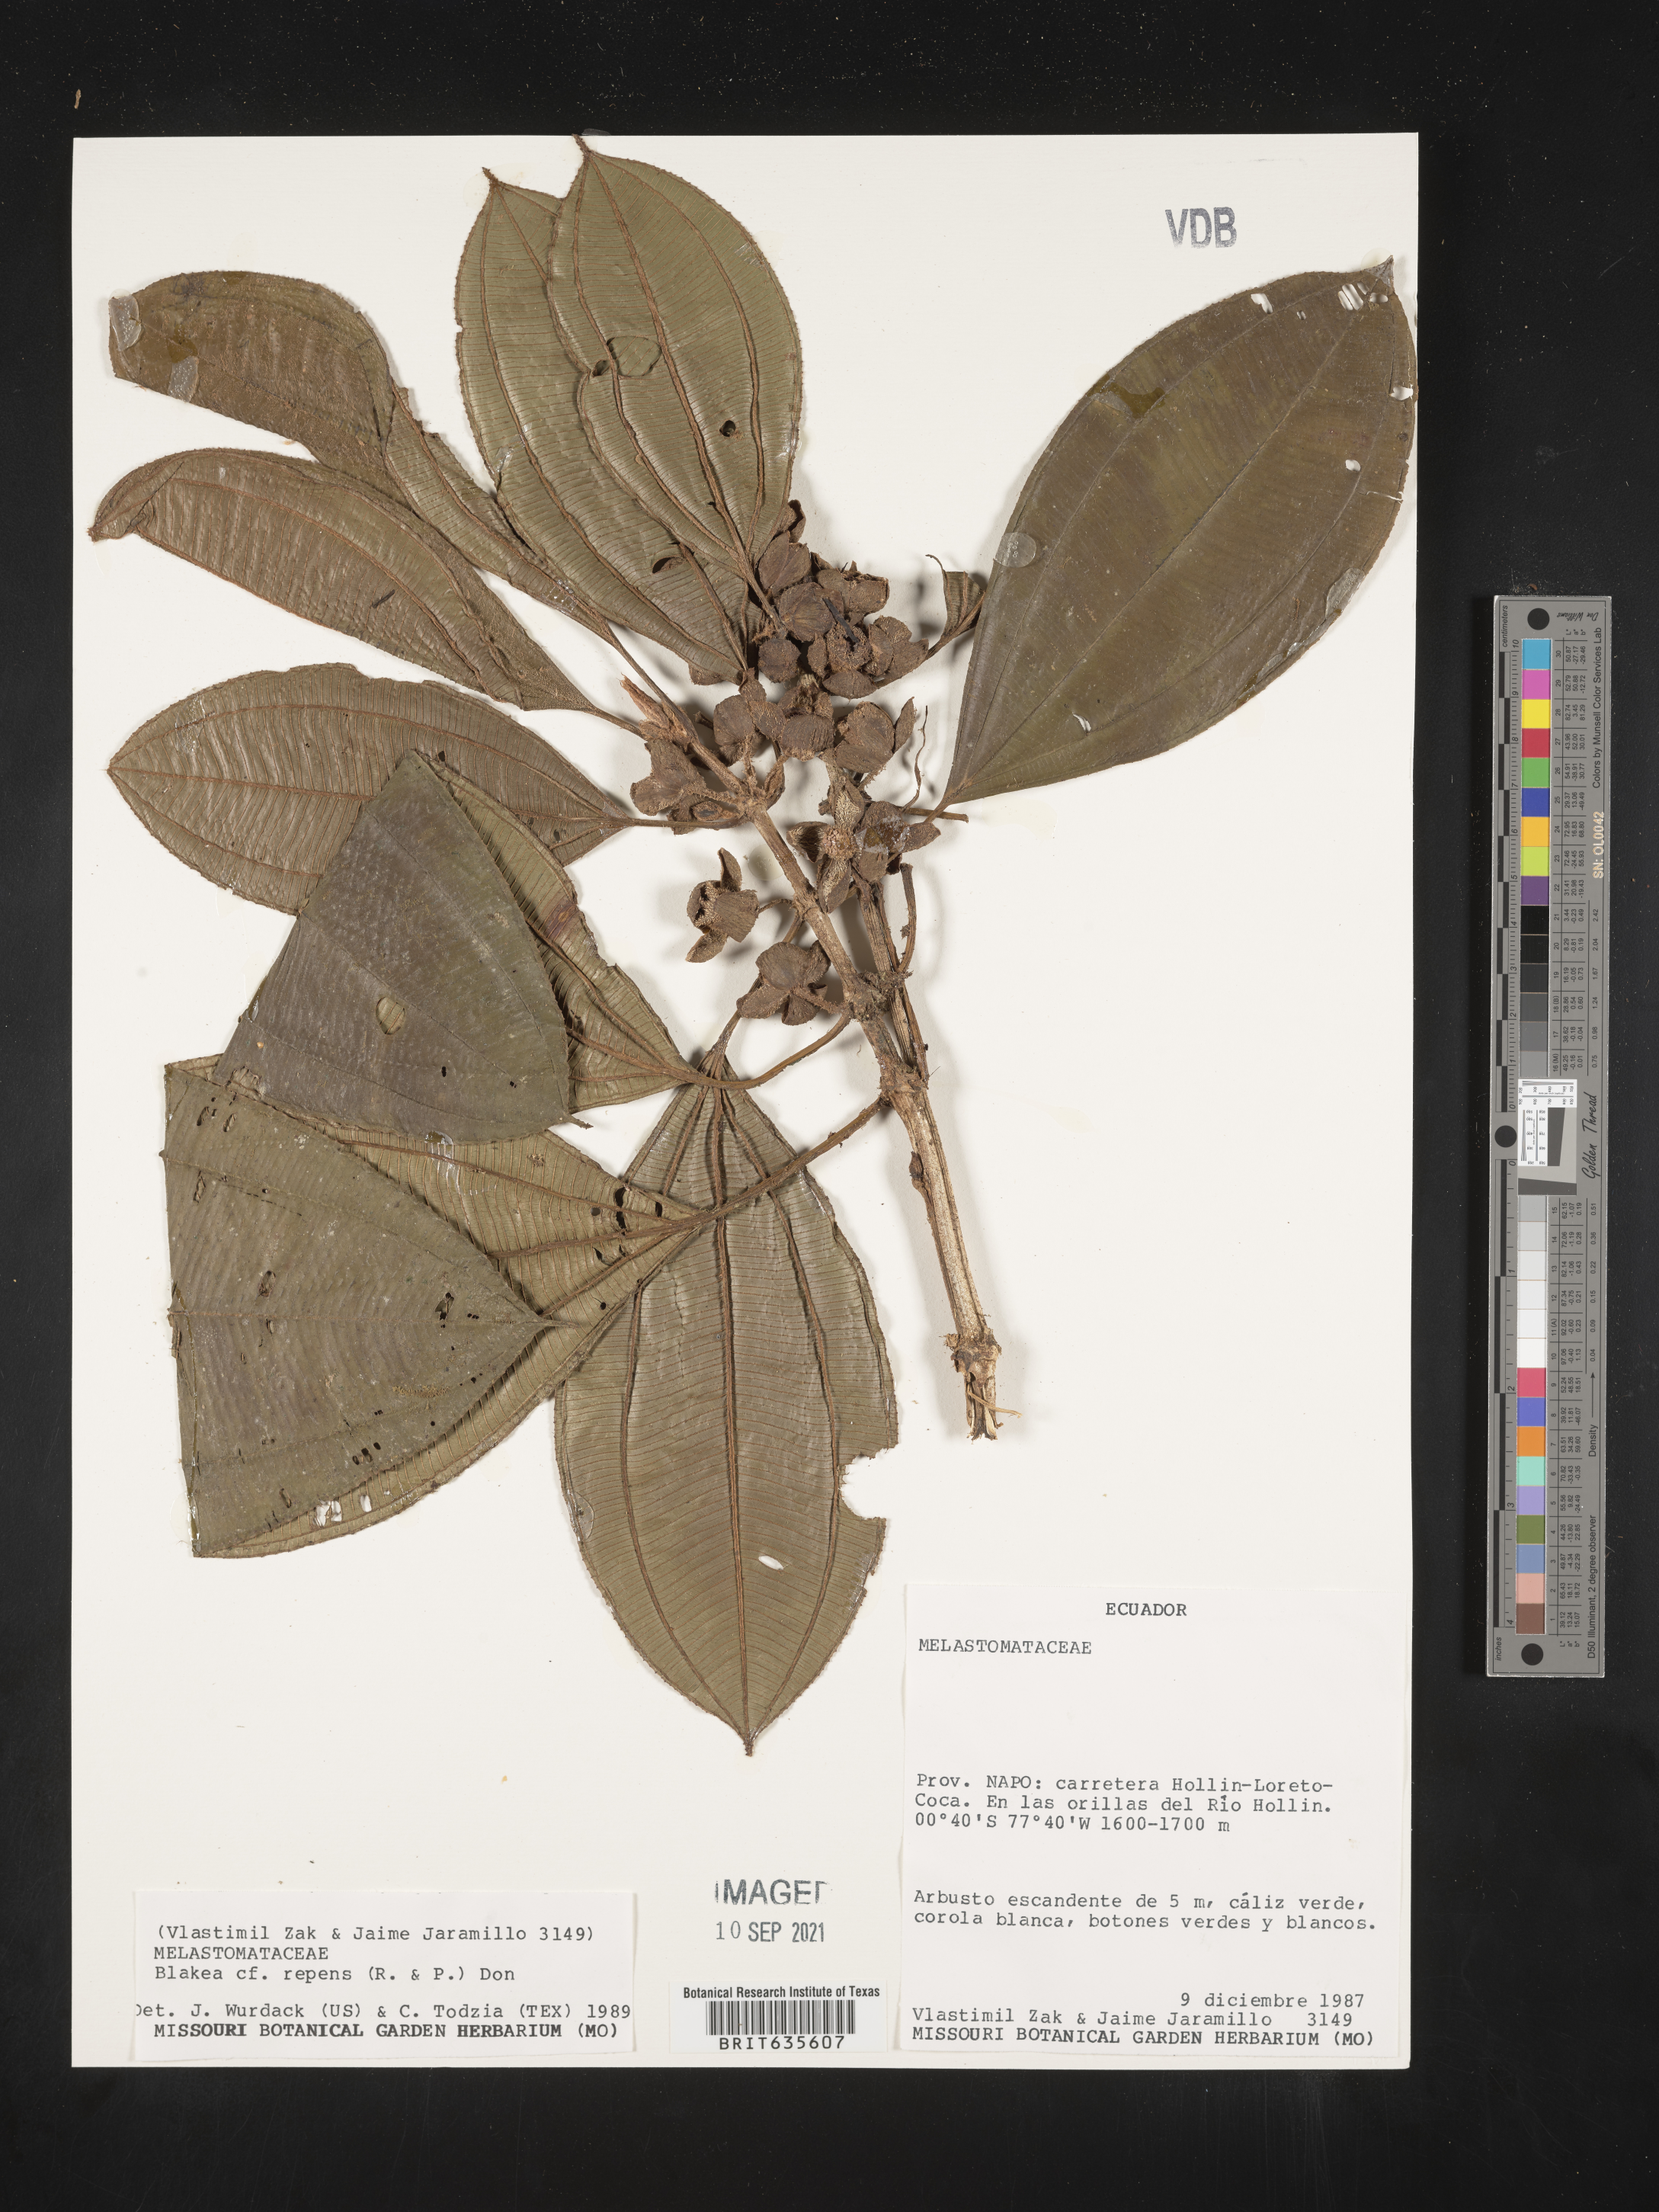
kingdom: Plantae
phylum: Tracheophyta
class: Magnoliopsida
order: Myrtales
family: Melastomataceae
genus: Blakea
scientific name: Blakea
